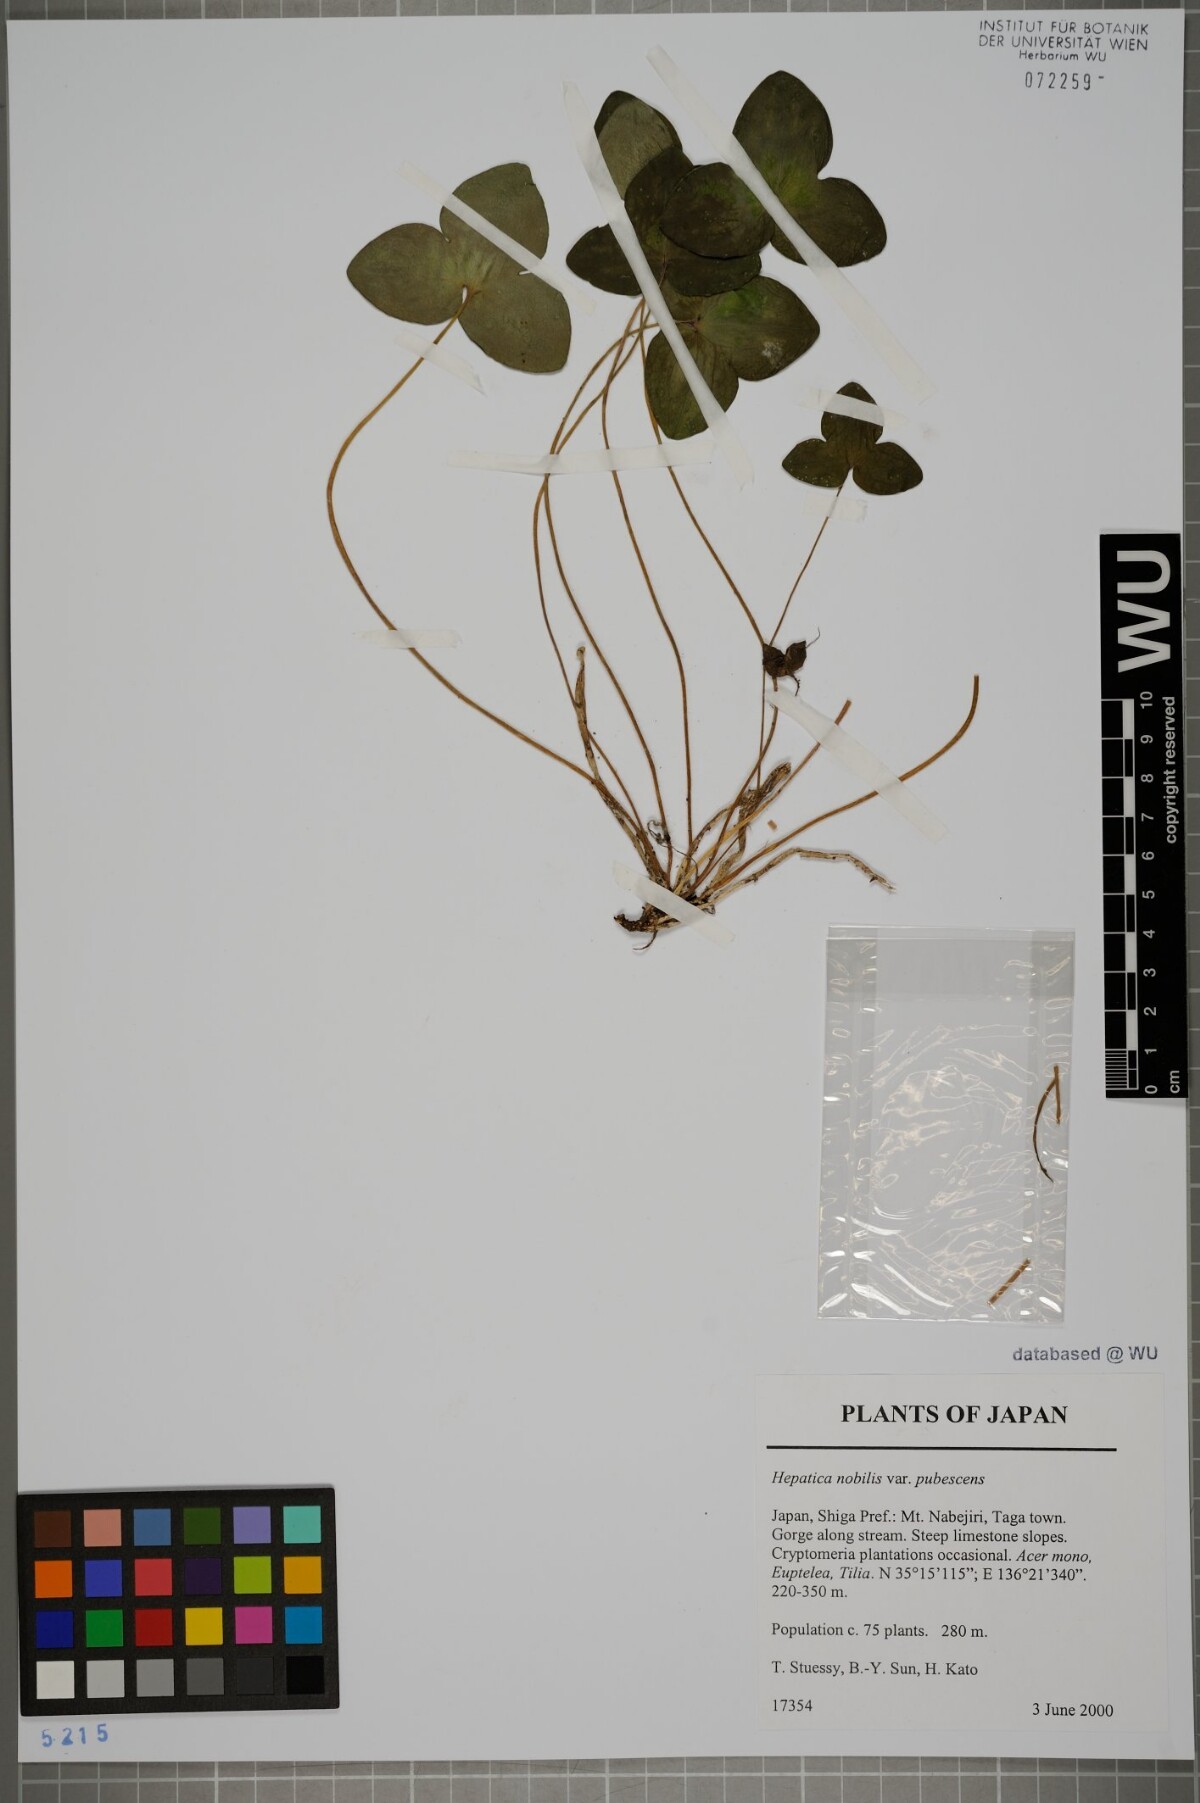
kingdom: Plantae
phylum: Tracheophyta
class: Magnoliopsida
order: Ranunculales
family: Ranunculaceae
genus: Hepatica
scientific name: Hepatica nobilis
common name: Liverleaf
